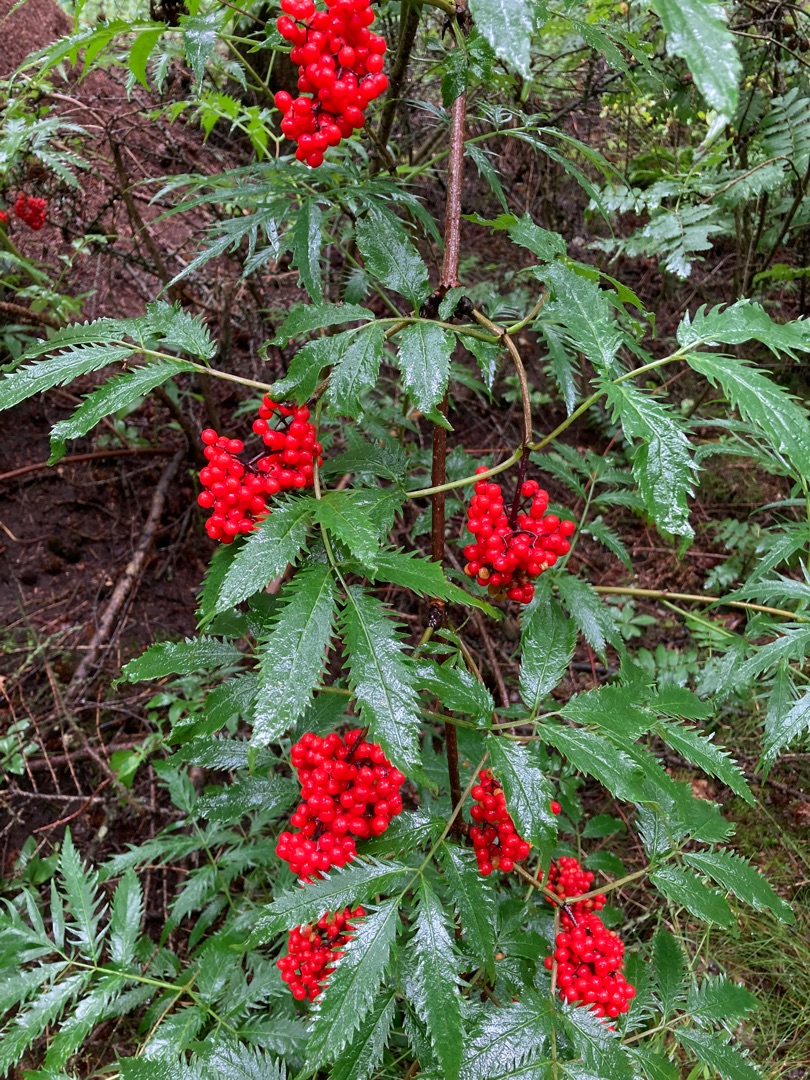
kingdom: Plantae
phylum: Tracheophyta
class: Magnoliopsida
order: Dipsacales
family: Viburnaceae
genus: Sambucus
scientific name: Sambucus racemosa
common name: Drue-hyld
